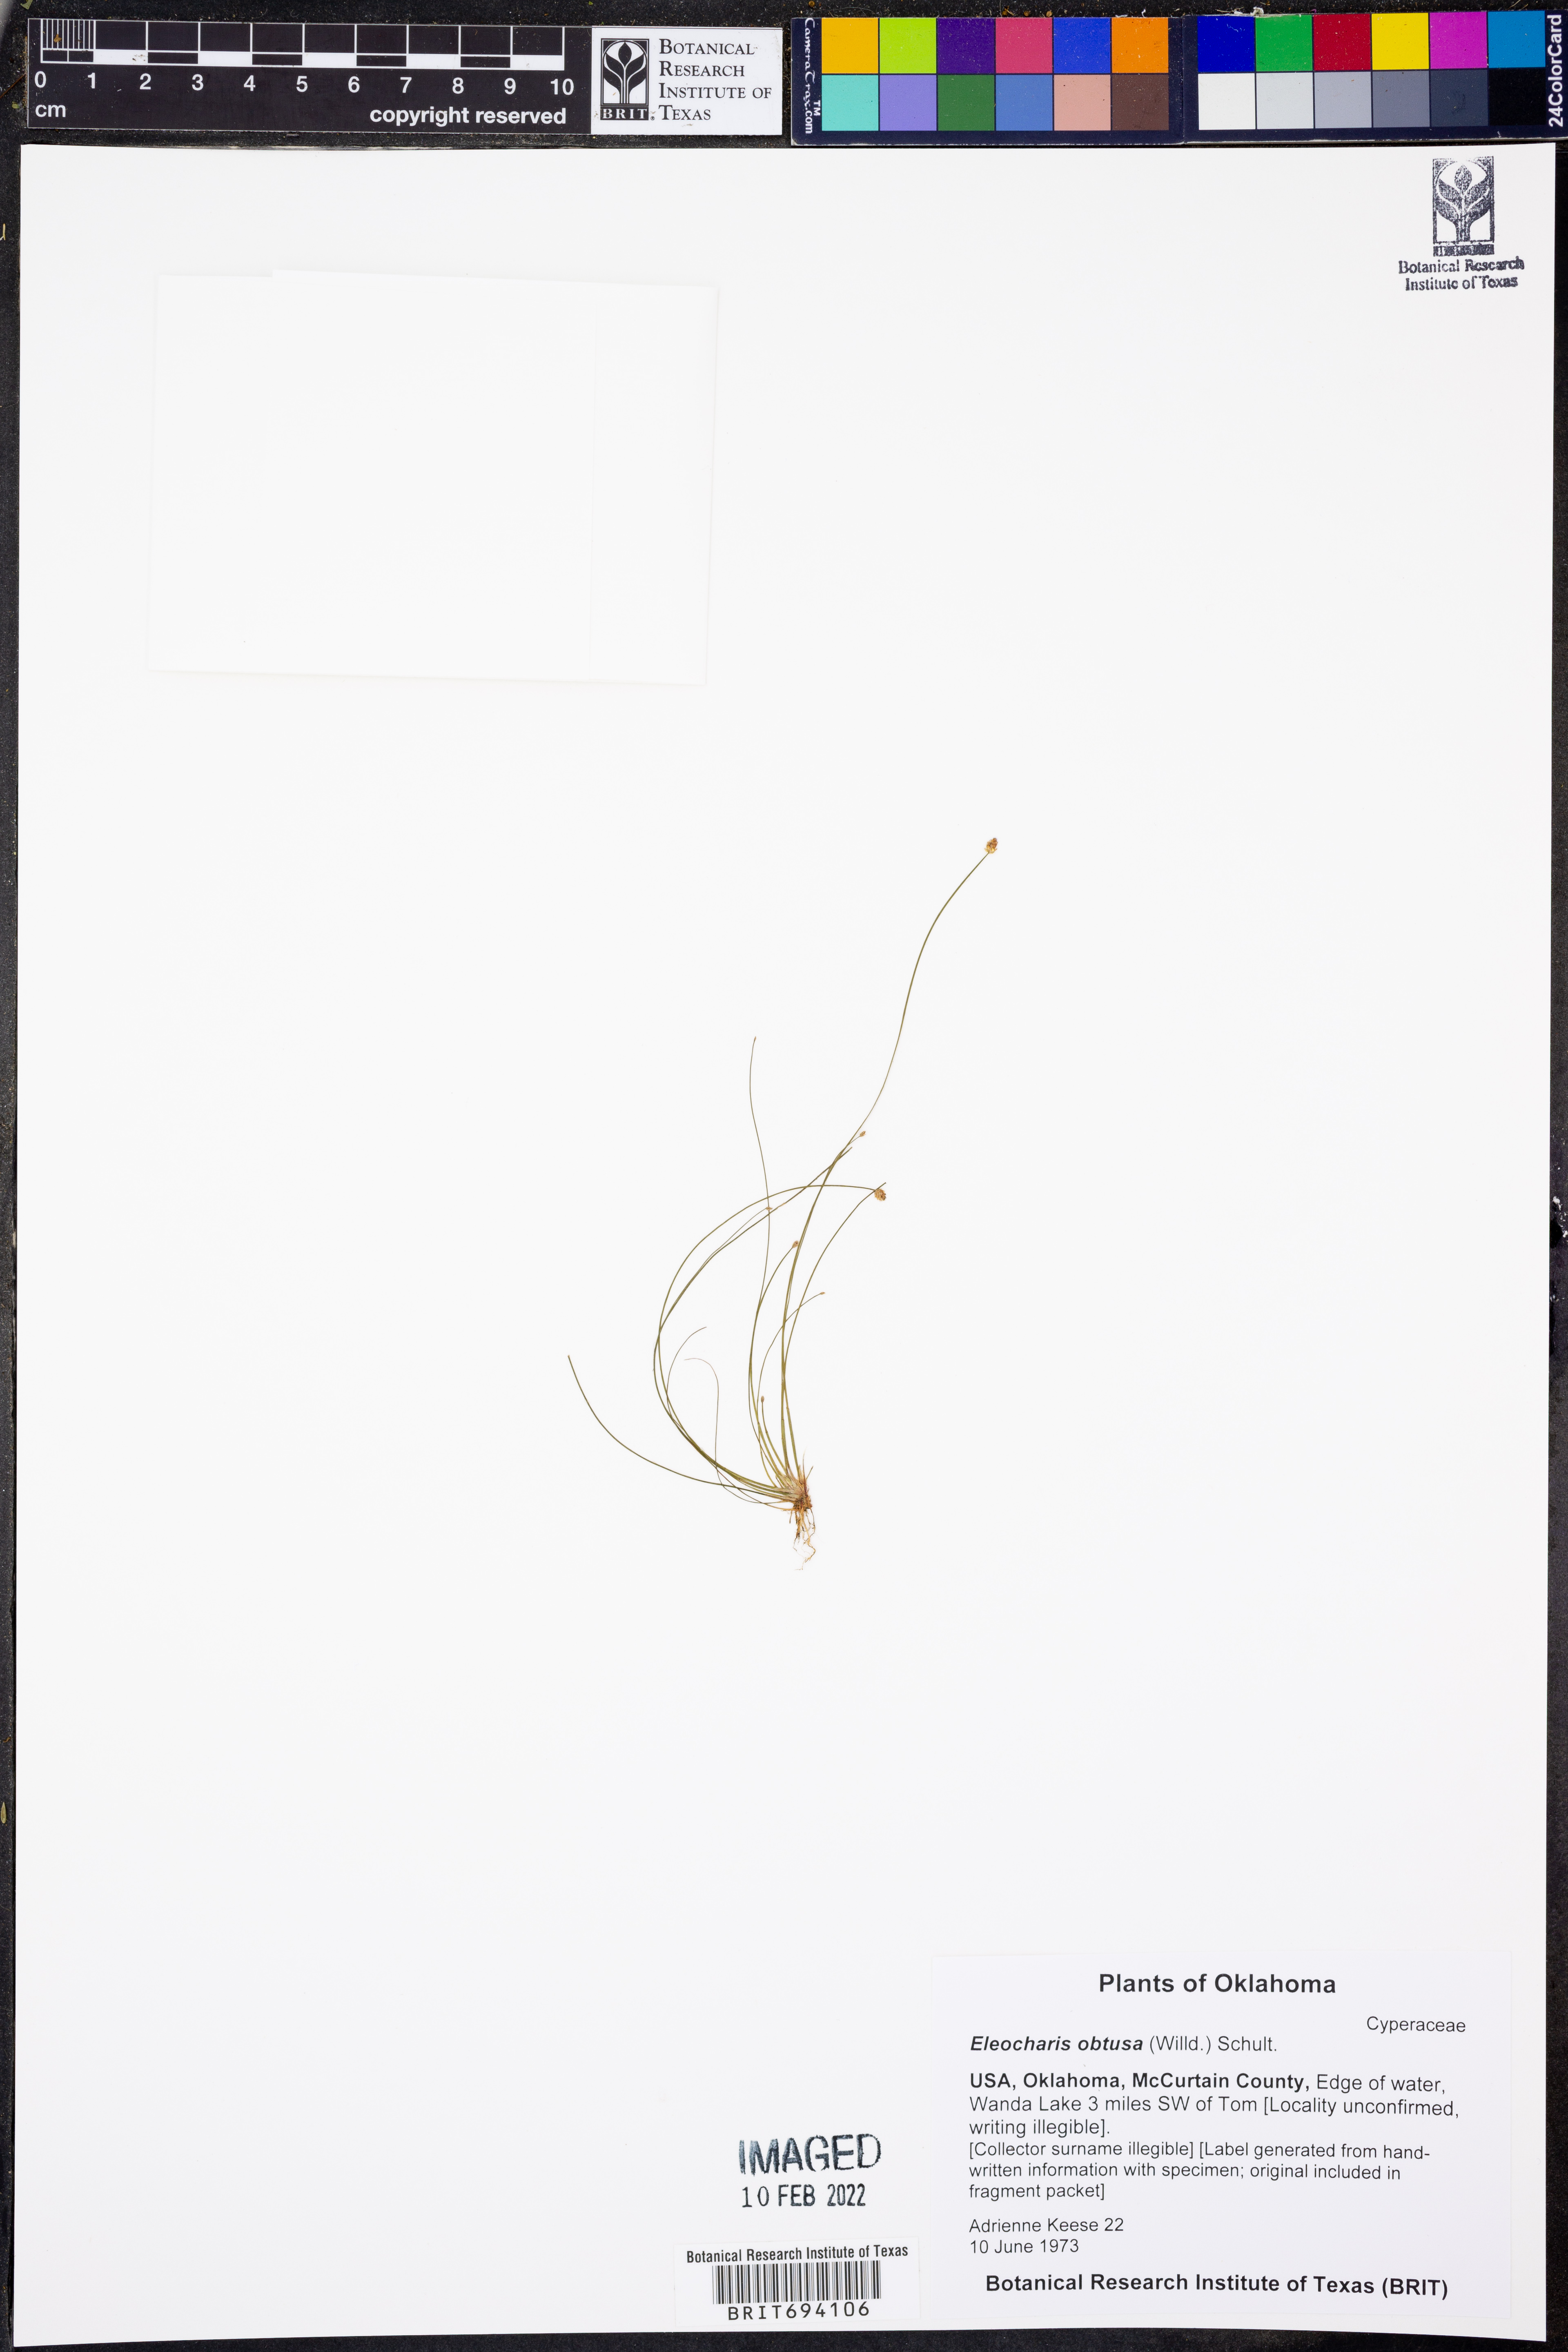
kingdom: Plantae
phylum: Tracheophyta
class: Liliopsida
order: Poales
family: Cyperaceae
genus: Eleocharis
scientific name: Eleocharis obtusa
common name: Blunt spikerush
